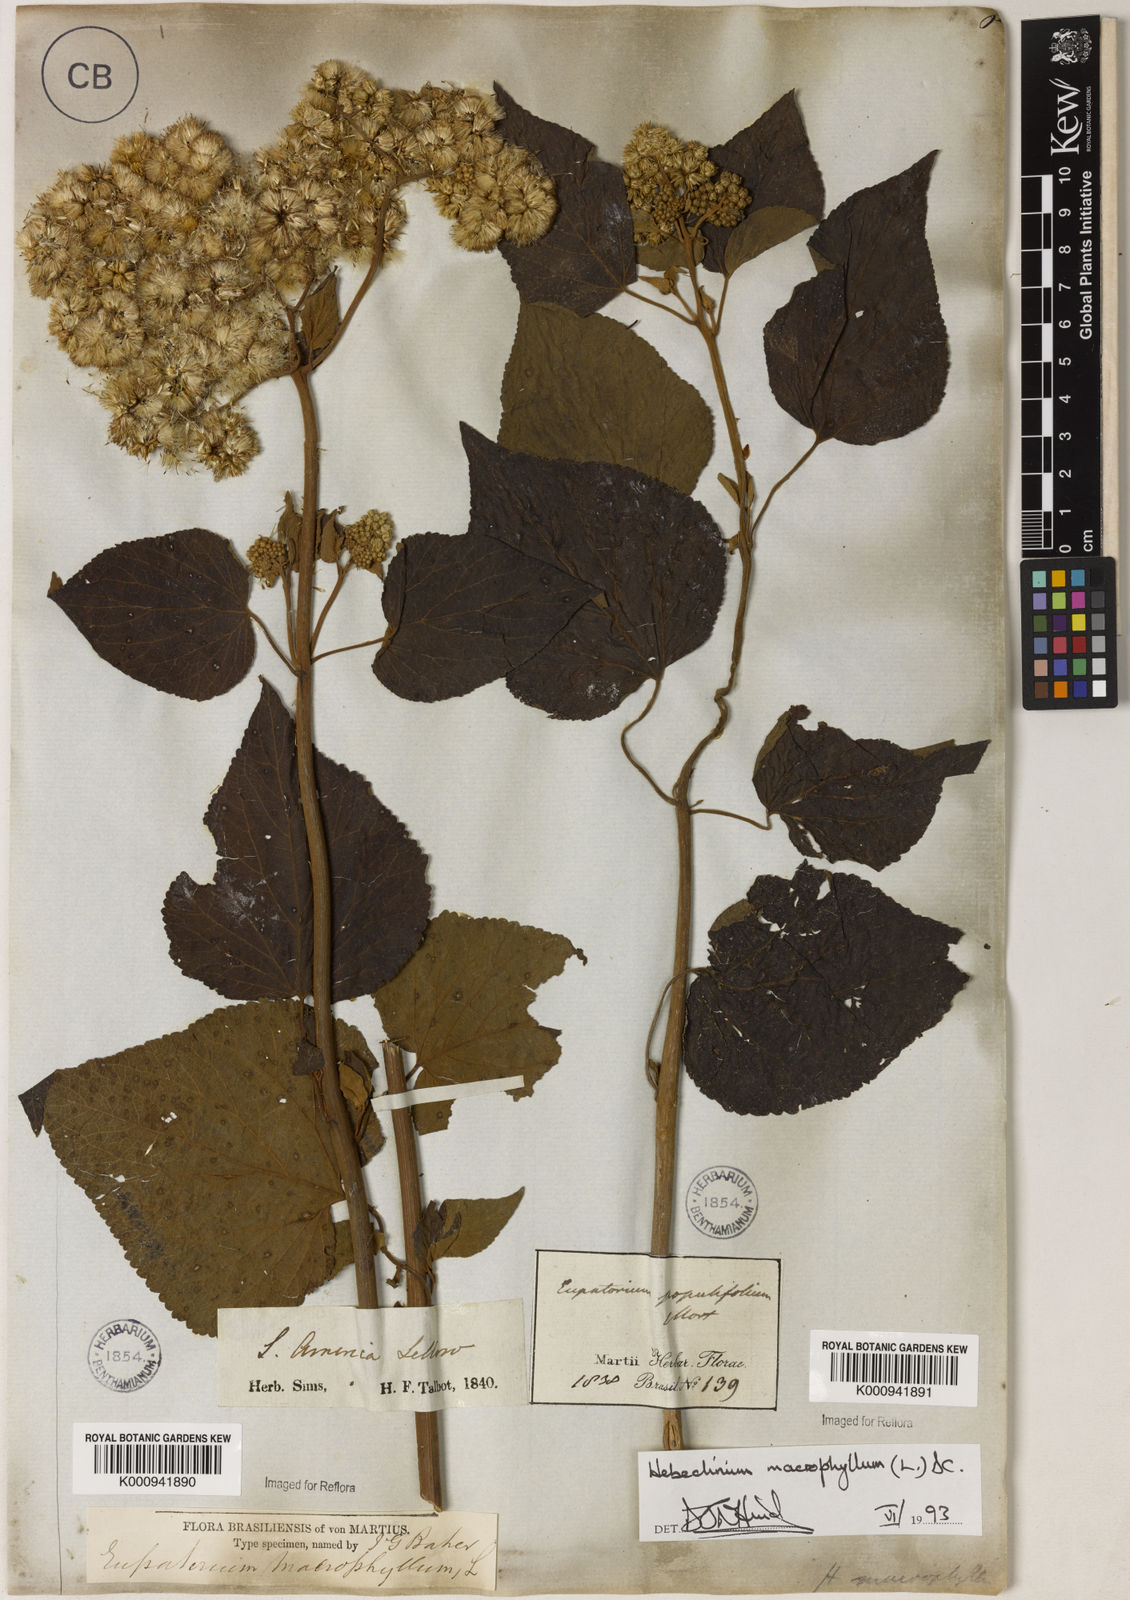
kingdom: Plantae
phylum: Tracheophyta
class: Magnoliopsida
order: Asterales
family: Asteraceae
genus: Hebeclinium
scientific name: Hebeclinium macrophyllum
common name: Largeleaf thoroughwort
